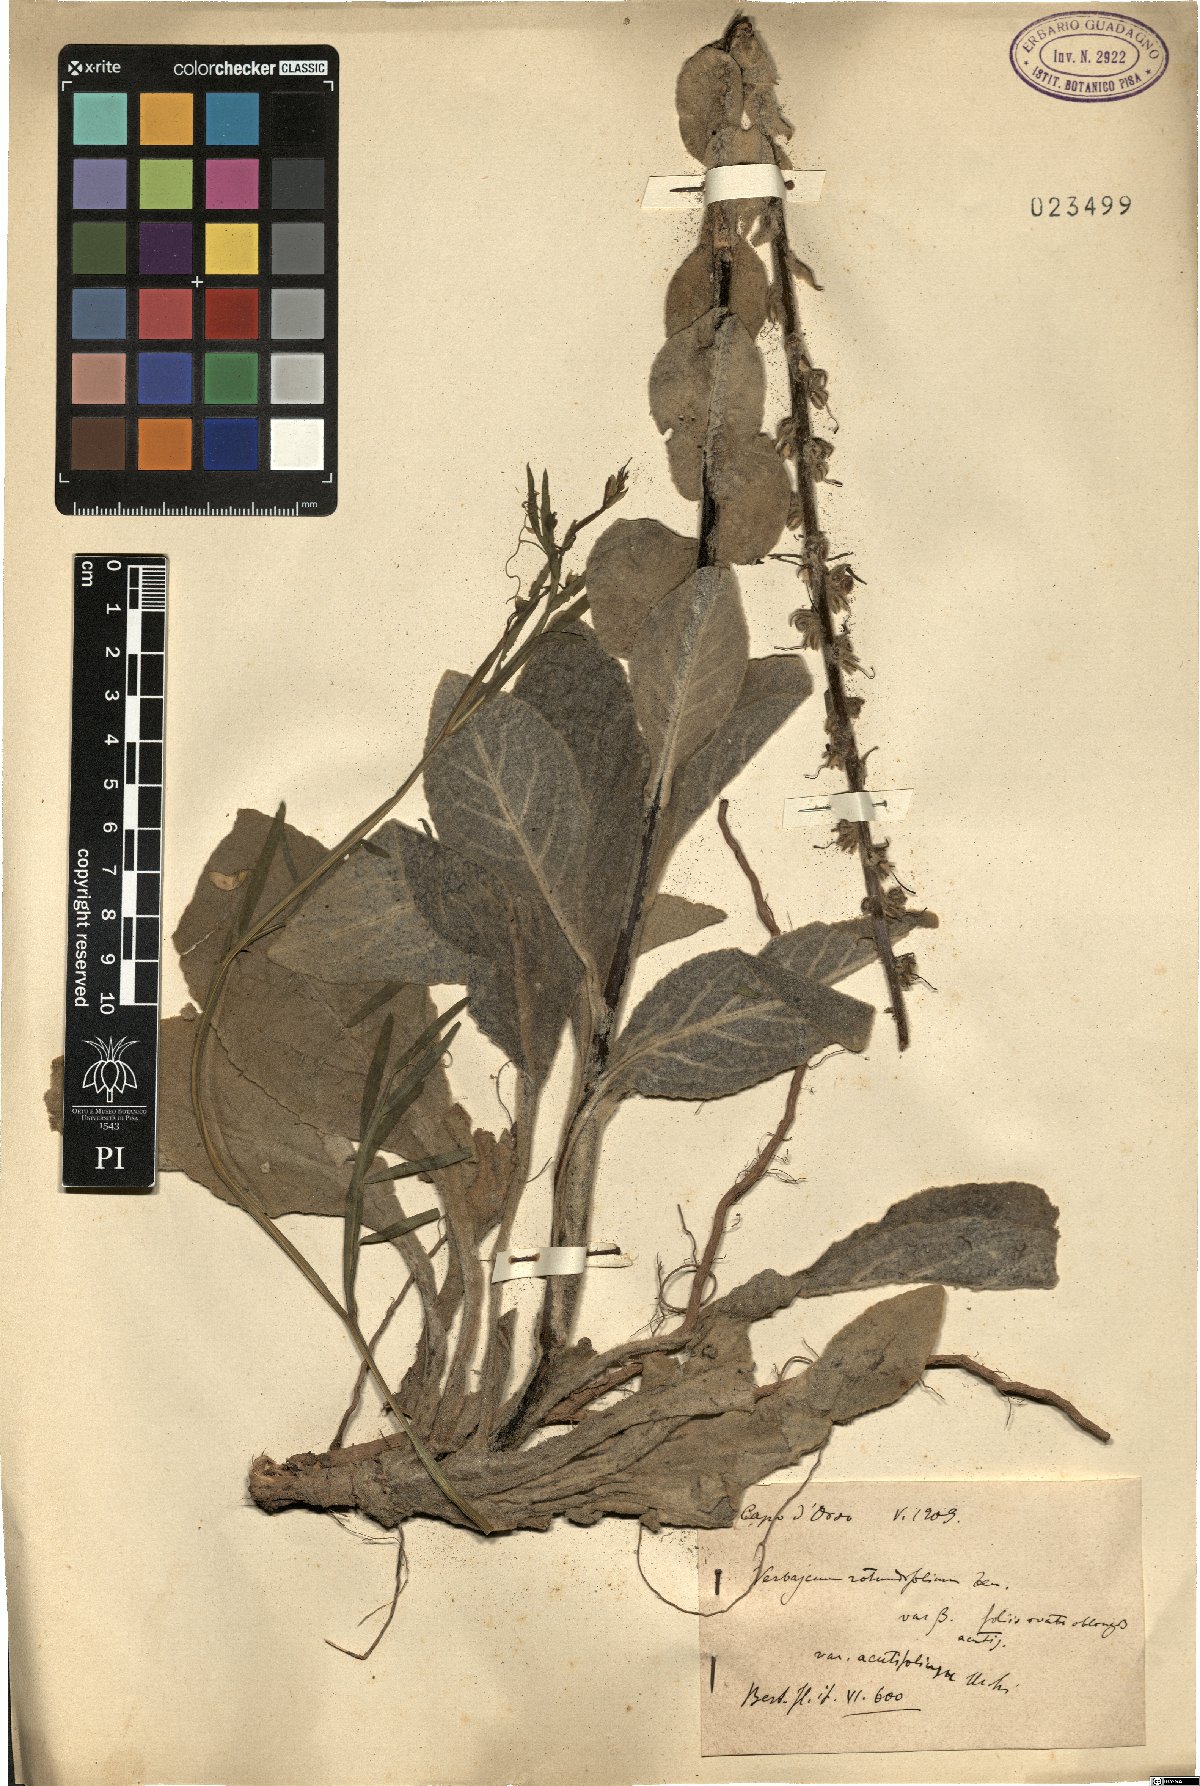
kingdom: Plantae
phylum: Tracheophyta
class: Magnoliopsida
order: Lamiales
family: Scrophulariaceae
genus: Verbascum
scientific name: Verbascum rotundifolium
